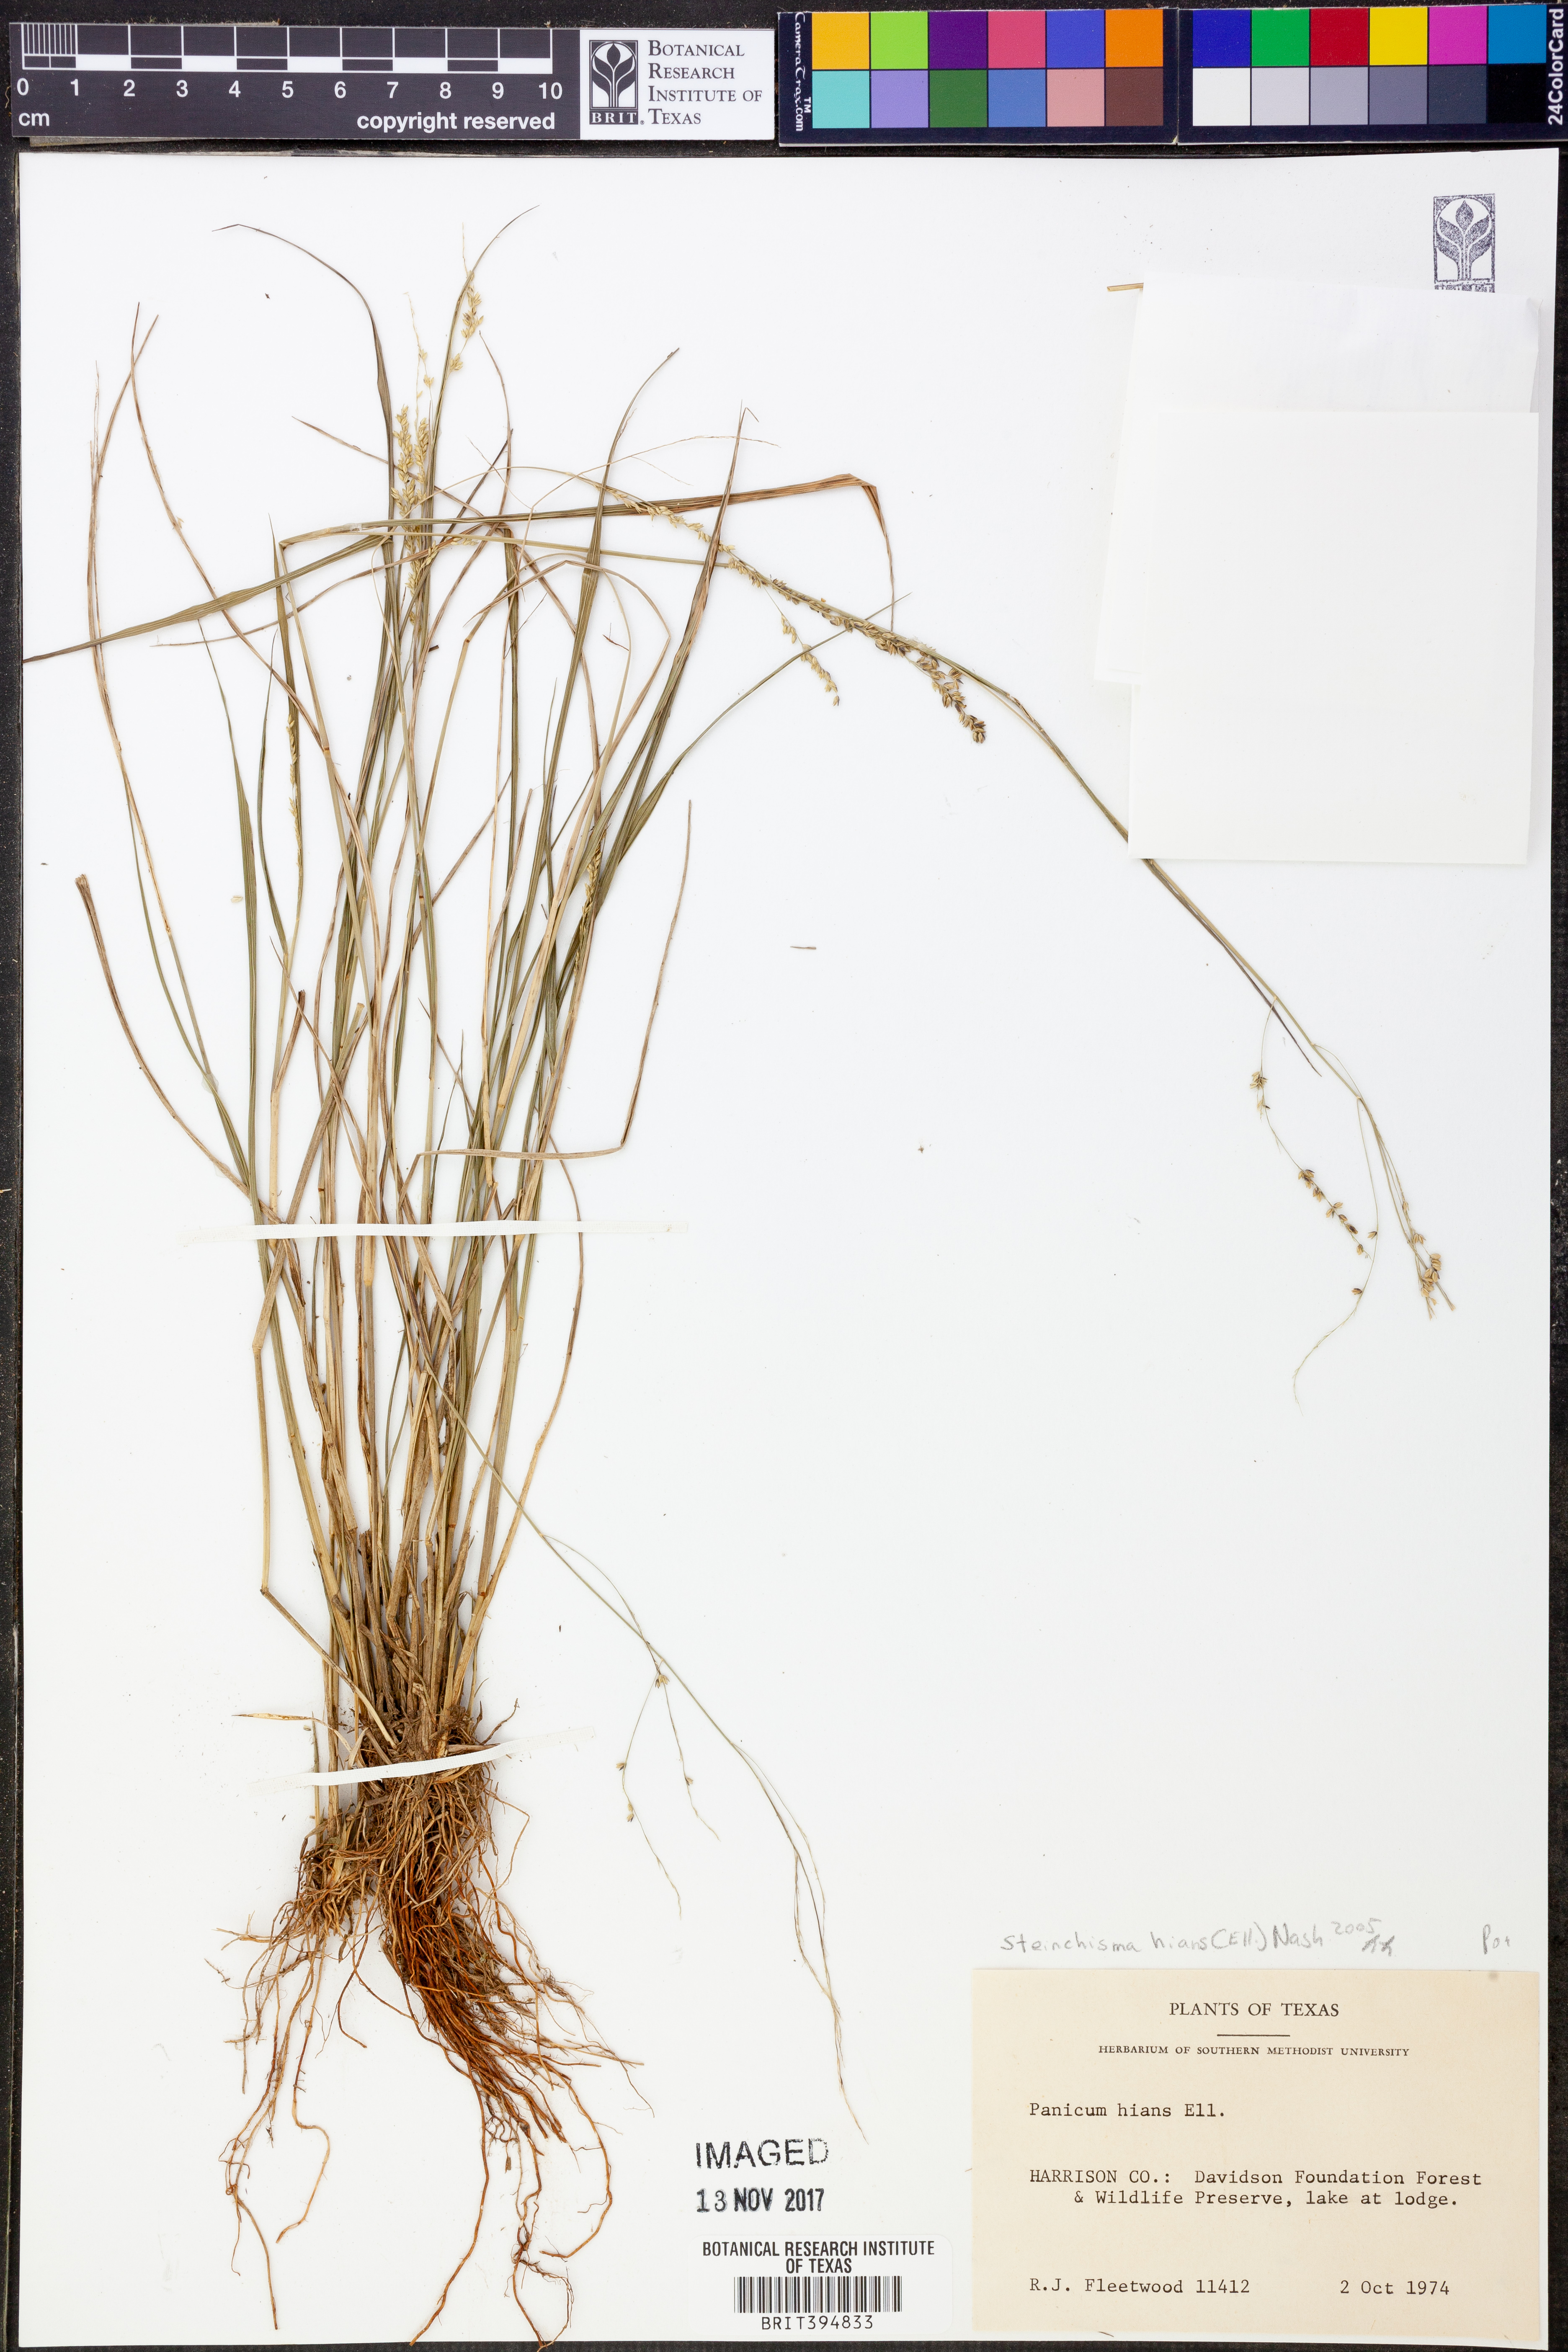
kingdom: Plantae
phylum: Tracheophyta
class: Liliopsida
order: Poales
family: Poaceae
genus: Steinchisma
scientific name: Steinchisma hians
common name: Gaping panic grass
